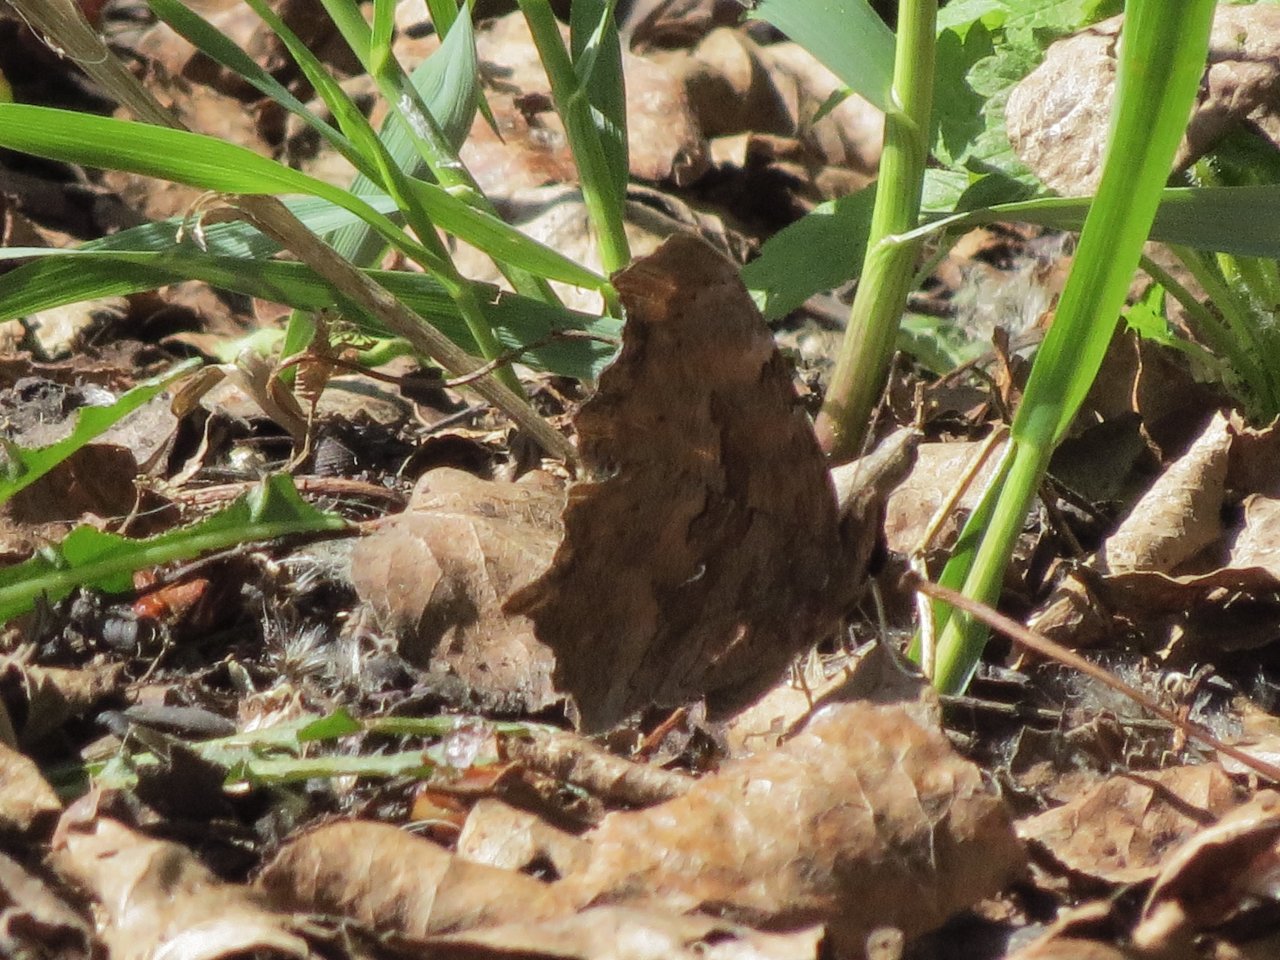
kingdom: Animalia
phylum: Arthropoda
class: Insecta
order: Lepidoptera
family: Nymphalidae
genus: Polygonia
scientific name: Polygonia comma
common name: Eastern Comma
